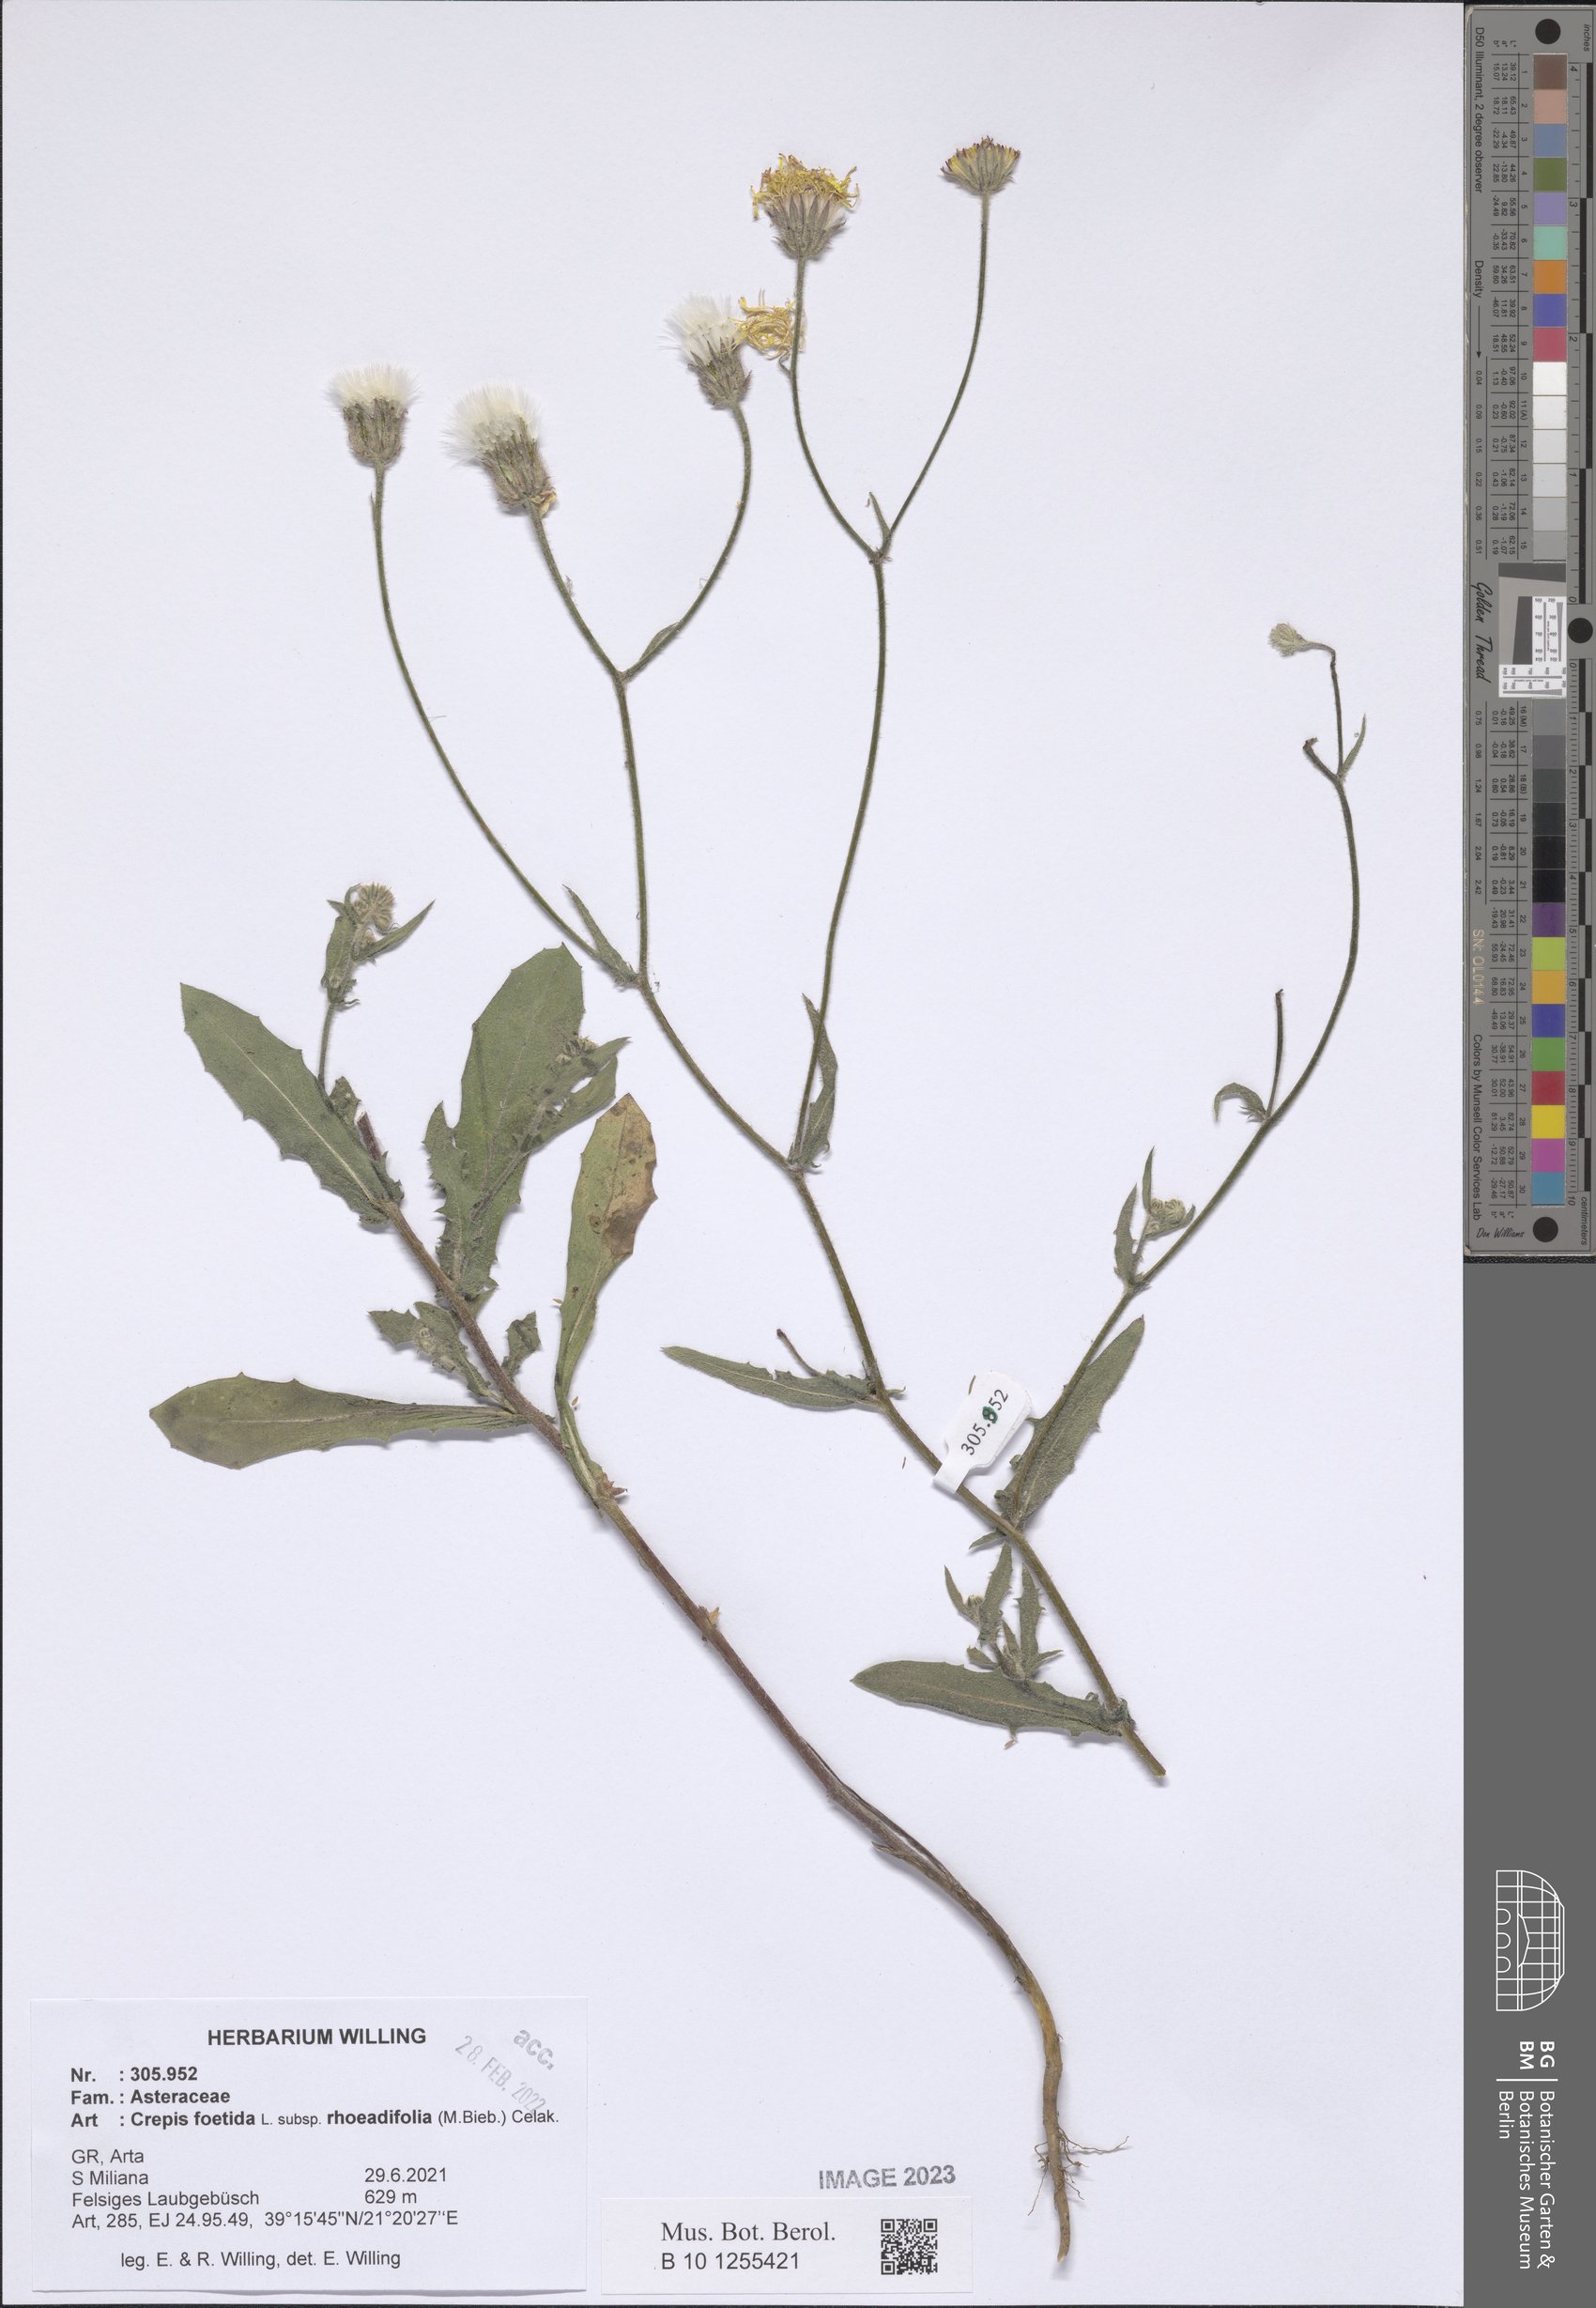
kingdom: Plantae
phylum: Tracheophyta
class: Magnoliopsida
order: Asterales
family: Asteraceae
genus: Crepis
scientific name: Crepis foetida
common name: Stinking hawk's-beard
